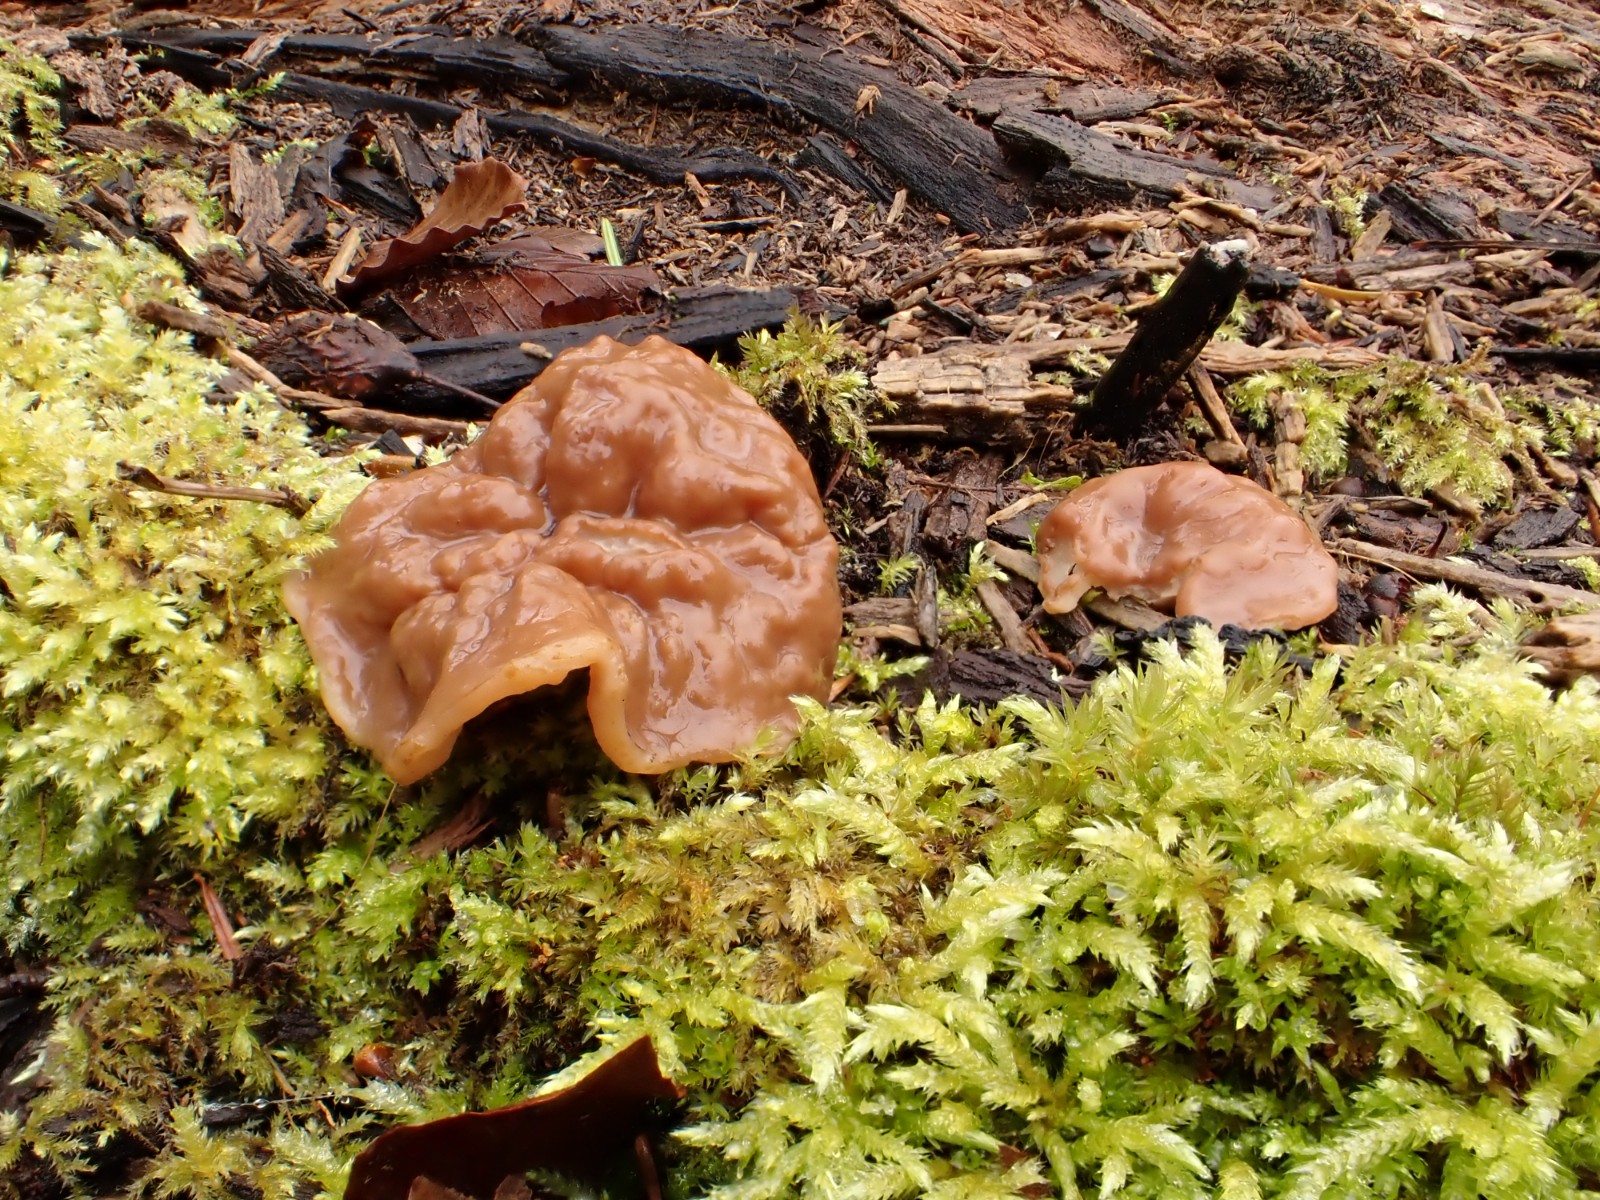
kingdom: Fungi
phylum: Ascomycota
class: Pezizomycetes
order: Pezizales
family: Discinaceae
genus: Gyromitra
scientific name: Gyromitra parma
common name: flad stenmorkel
